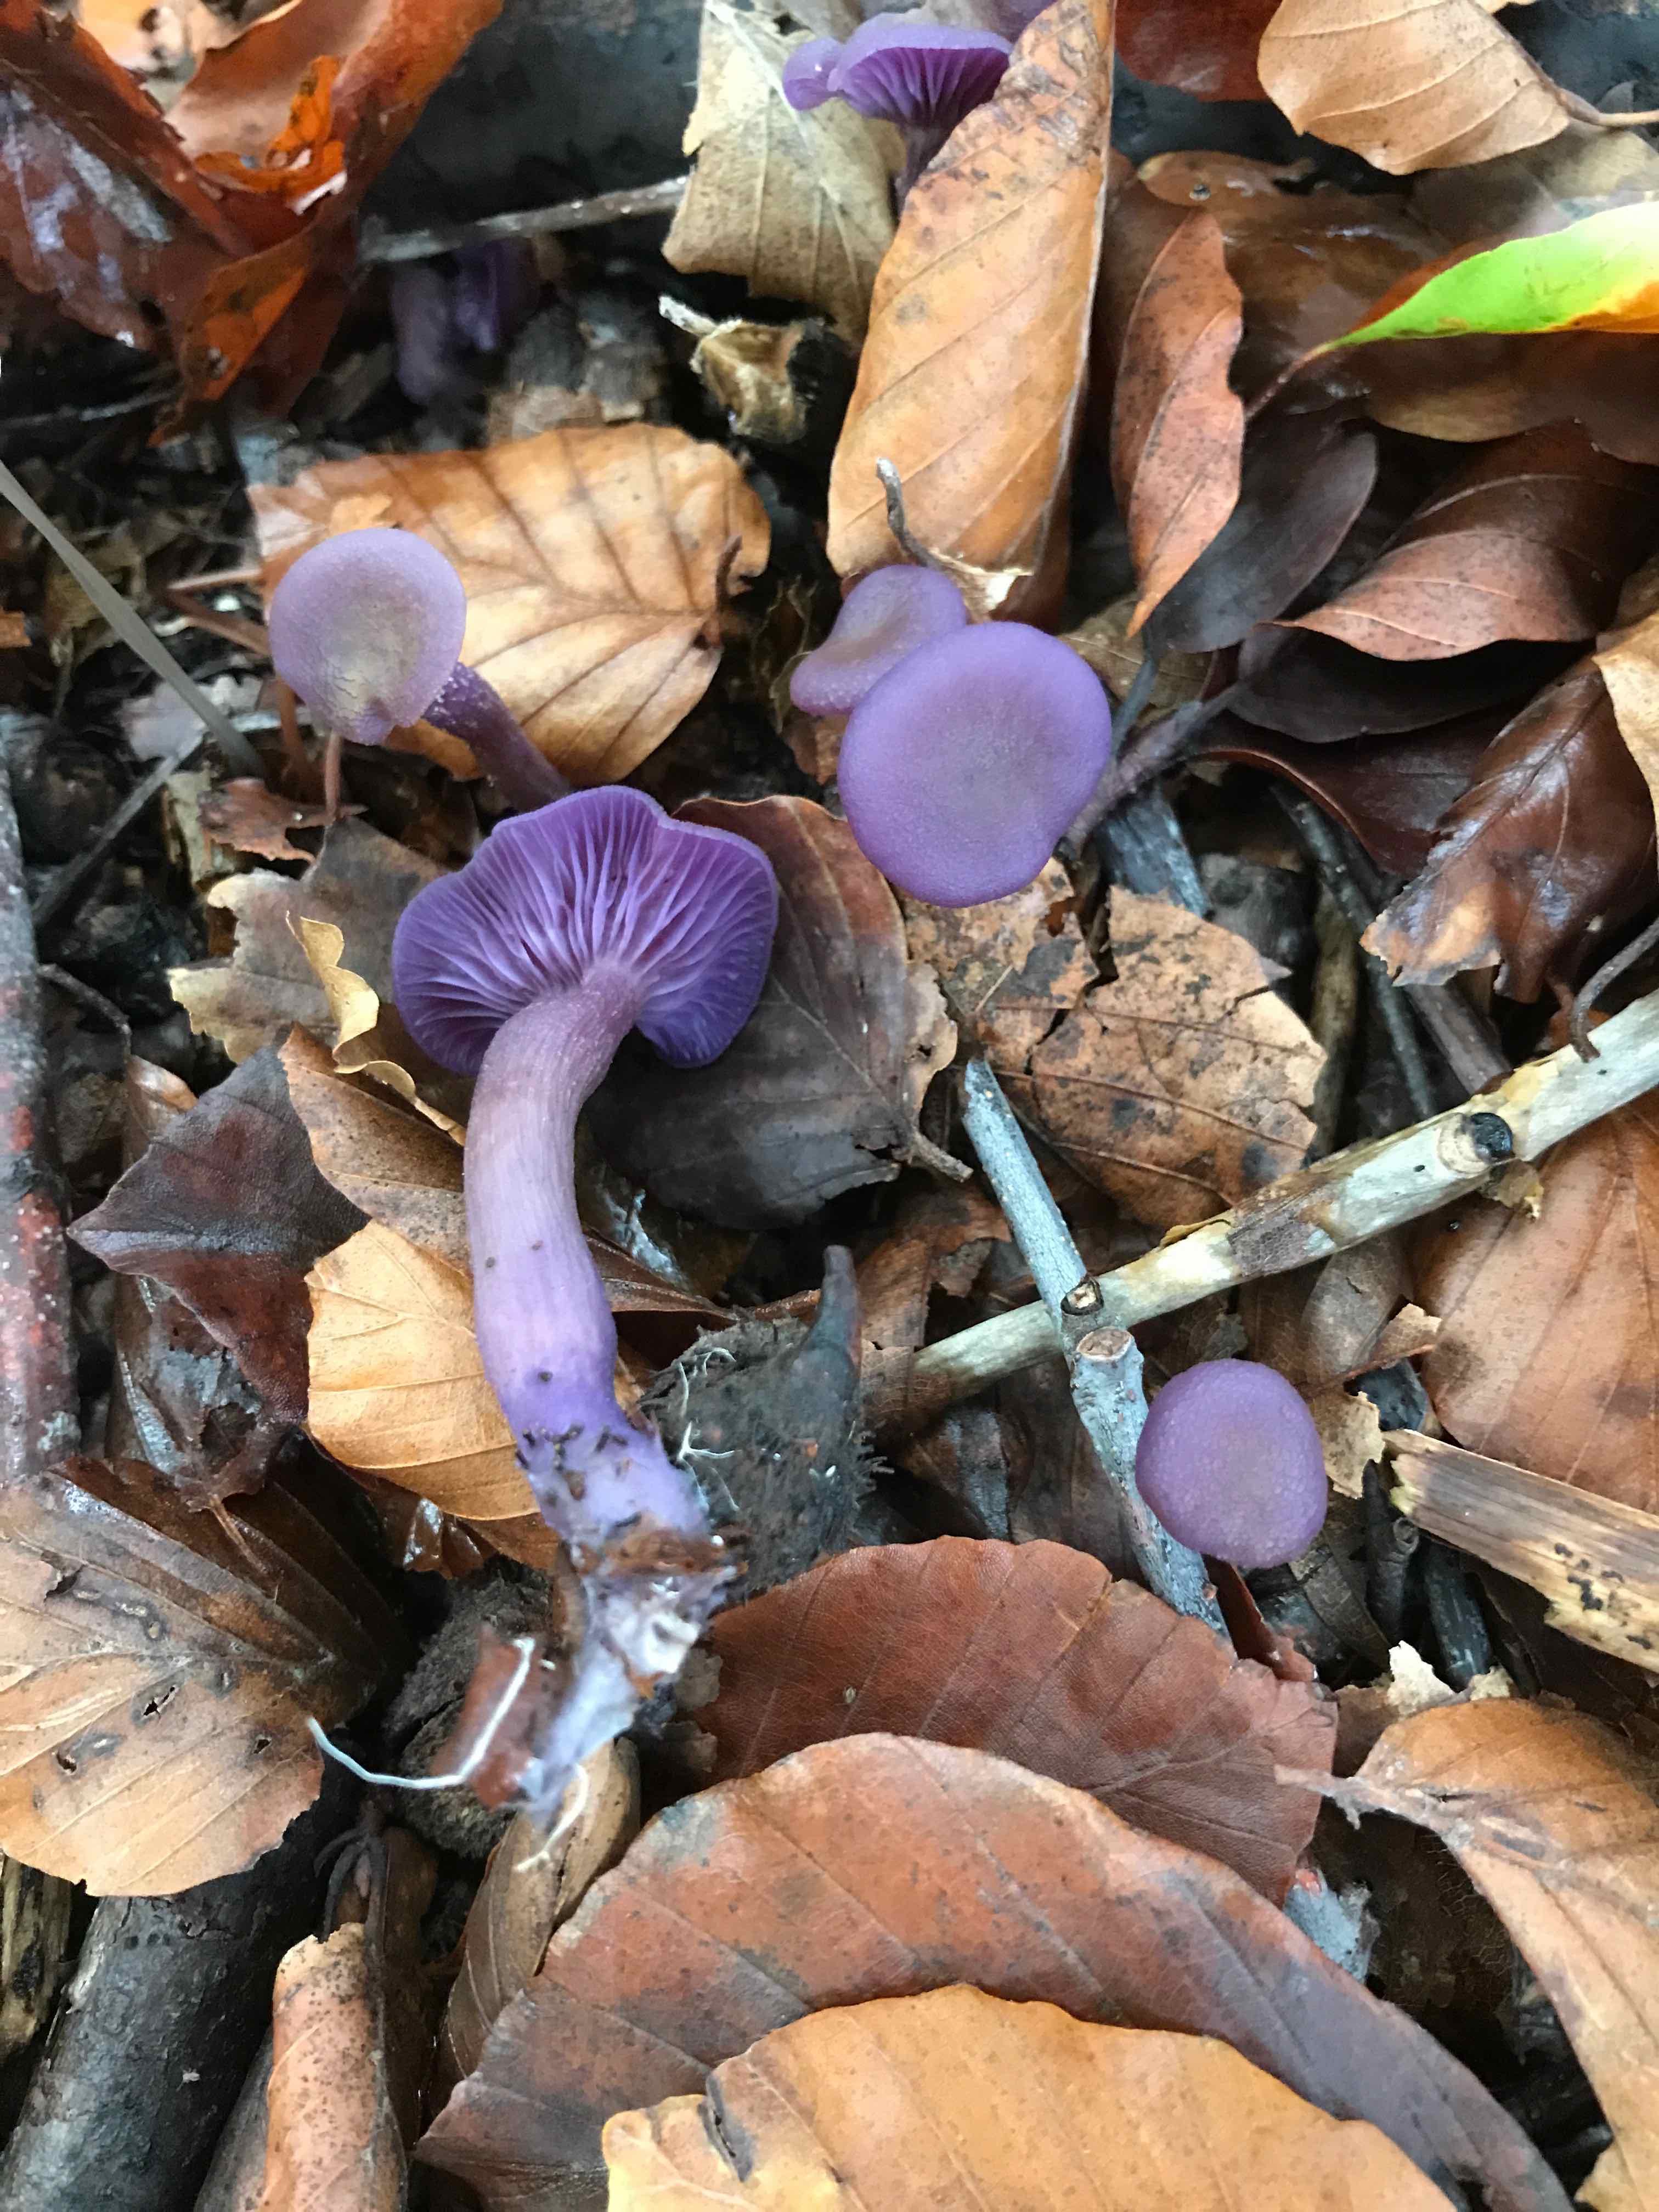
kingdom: Fungi
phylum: Basidiomycota
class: Agaricomycetes
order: Agaricales
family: Hydnangiaceae
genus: Laccaria
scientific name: Laccaria amethystina
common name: violet ametysthat
